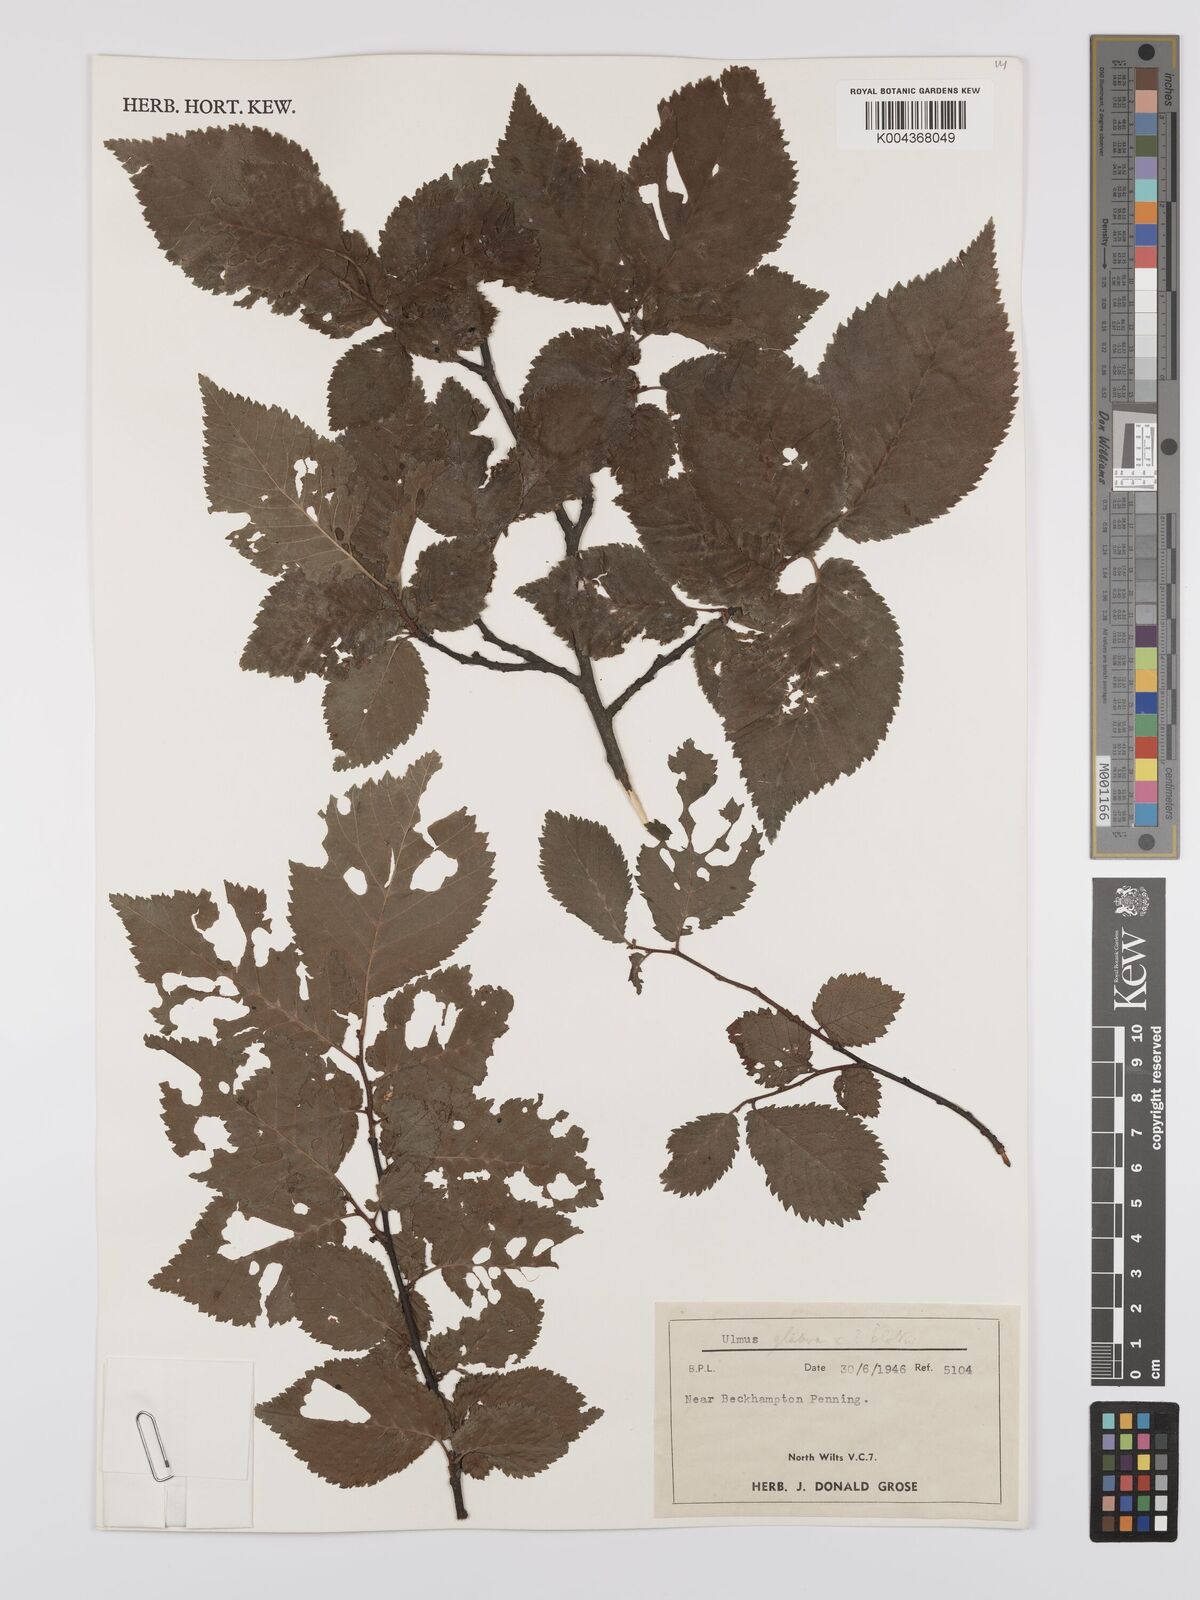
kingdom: Plantae
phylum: Tracheophyta
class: Magnoliopsida
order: Rosales
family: Ulmaceae
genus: Ulmus
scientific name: Ulmus
